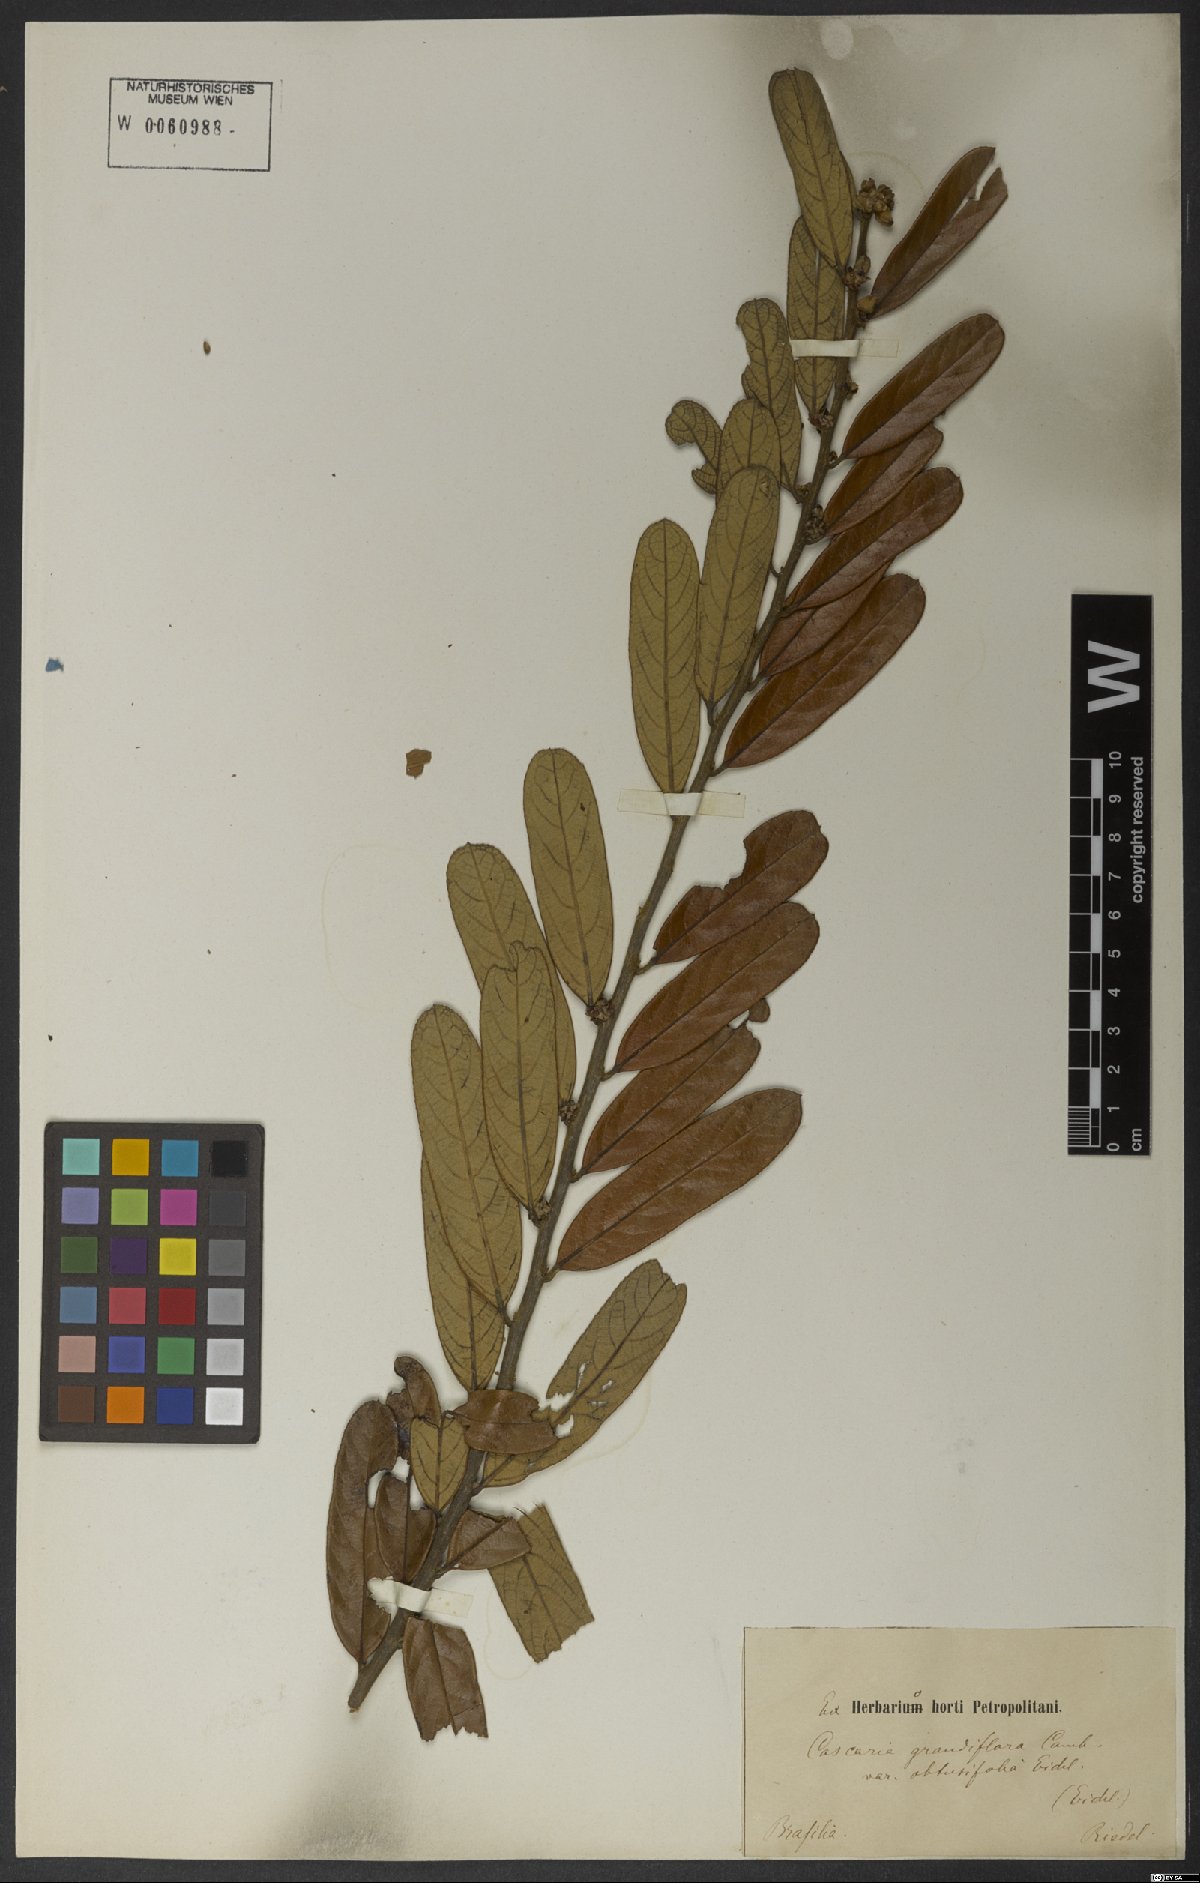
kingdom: Plantae
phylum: Tracheophyta
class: Magnoliopsida
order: Malpighiales
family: Salicaceae
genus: Casearia
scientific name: Casearia grandiflora
